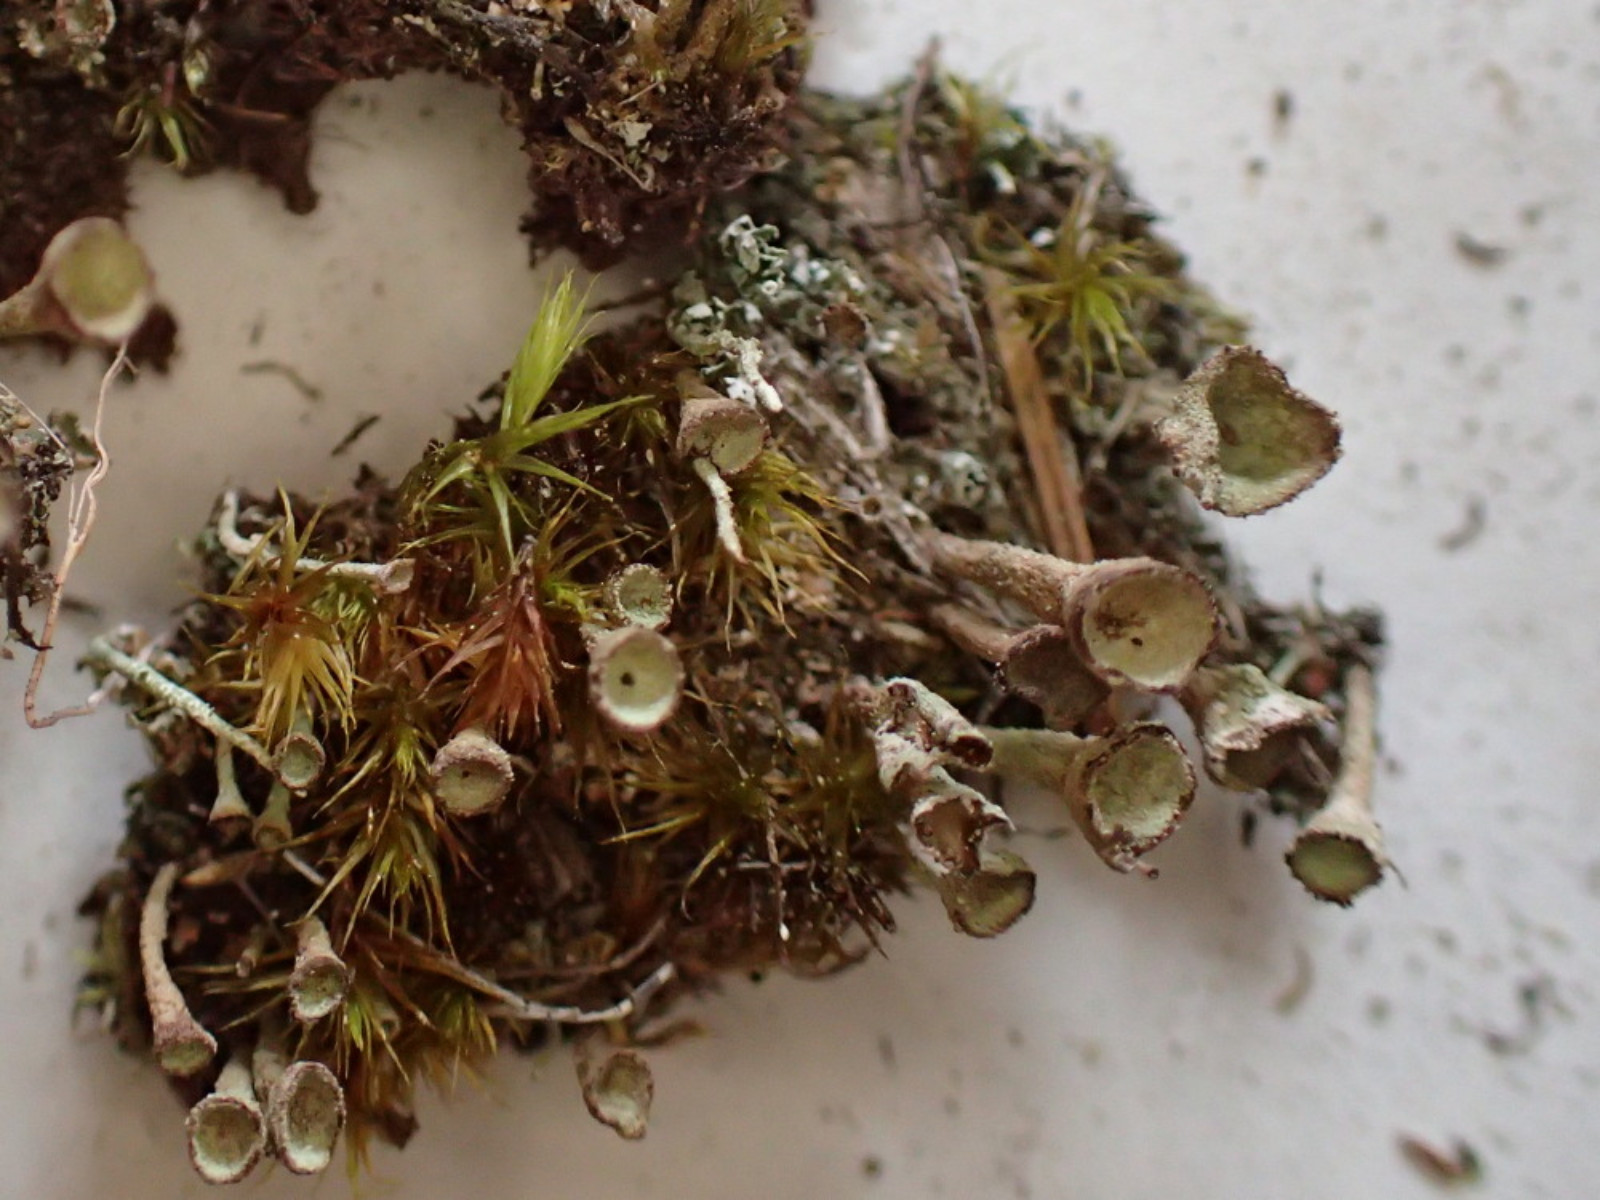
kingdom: Fungi
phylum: Ascomycota
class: Lecanoromycetes
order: Lecanorales
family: Cladoniaceae
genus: Cladonia
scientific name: Cladonia merochlorophaea
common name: mørk bægerlav
